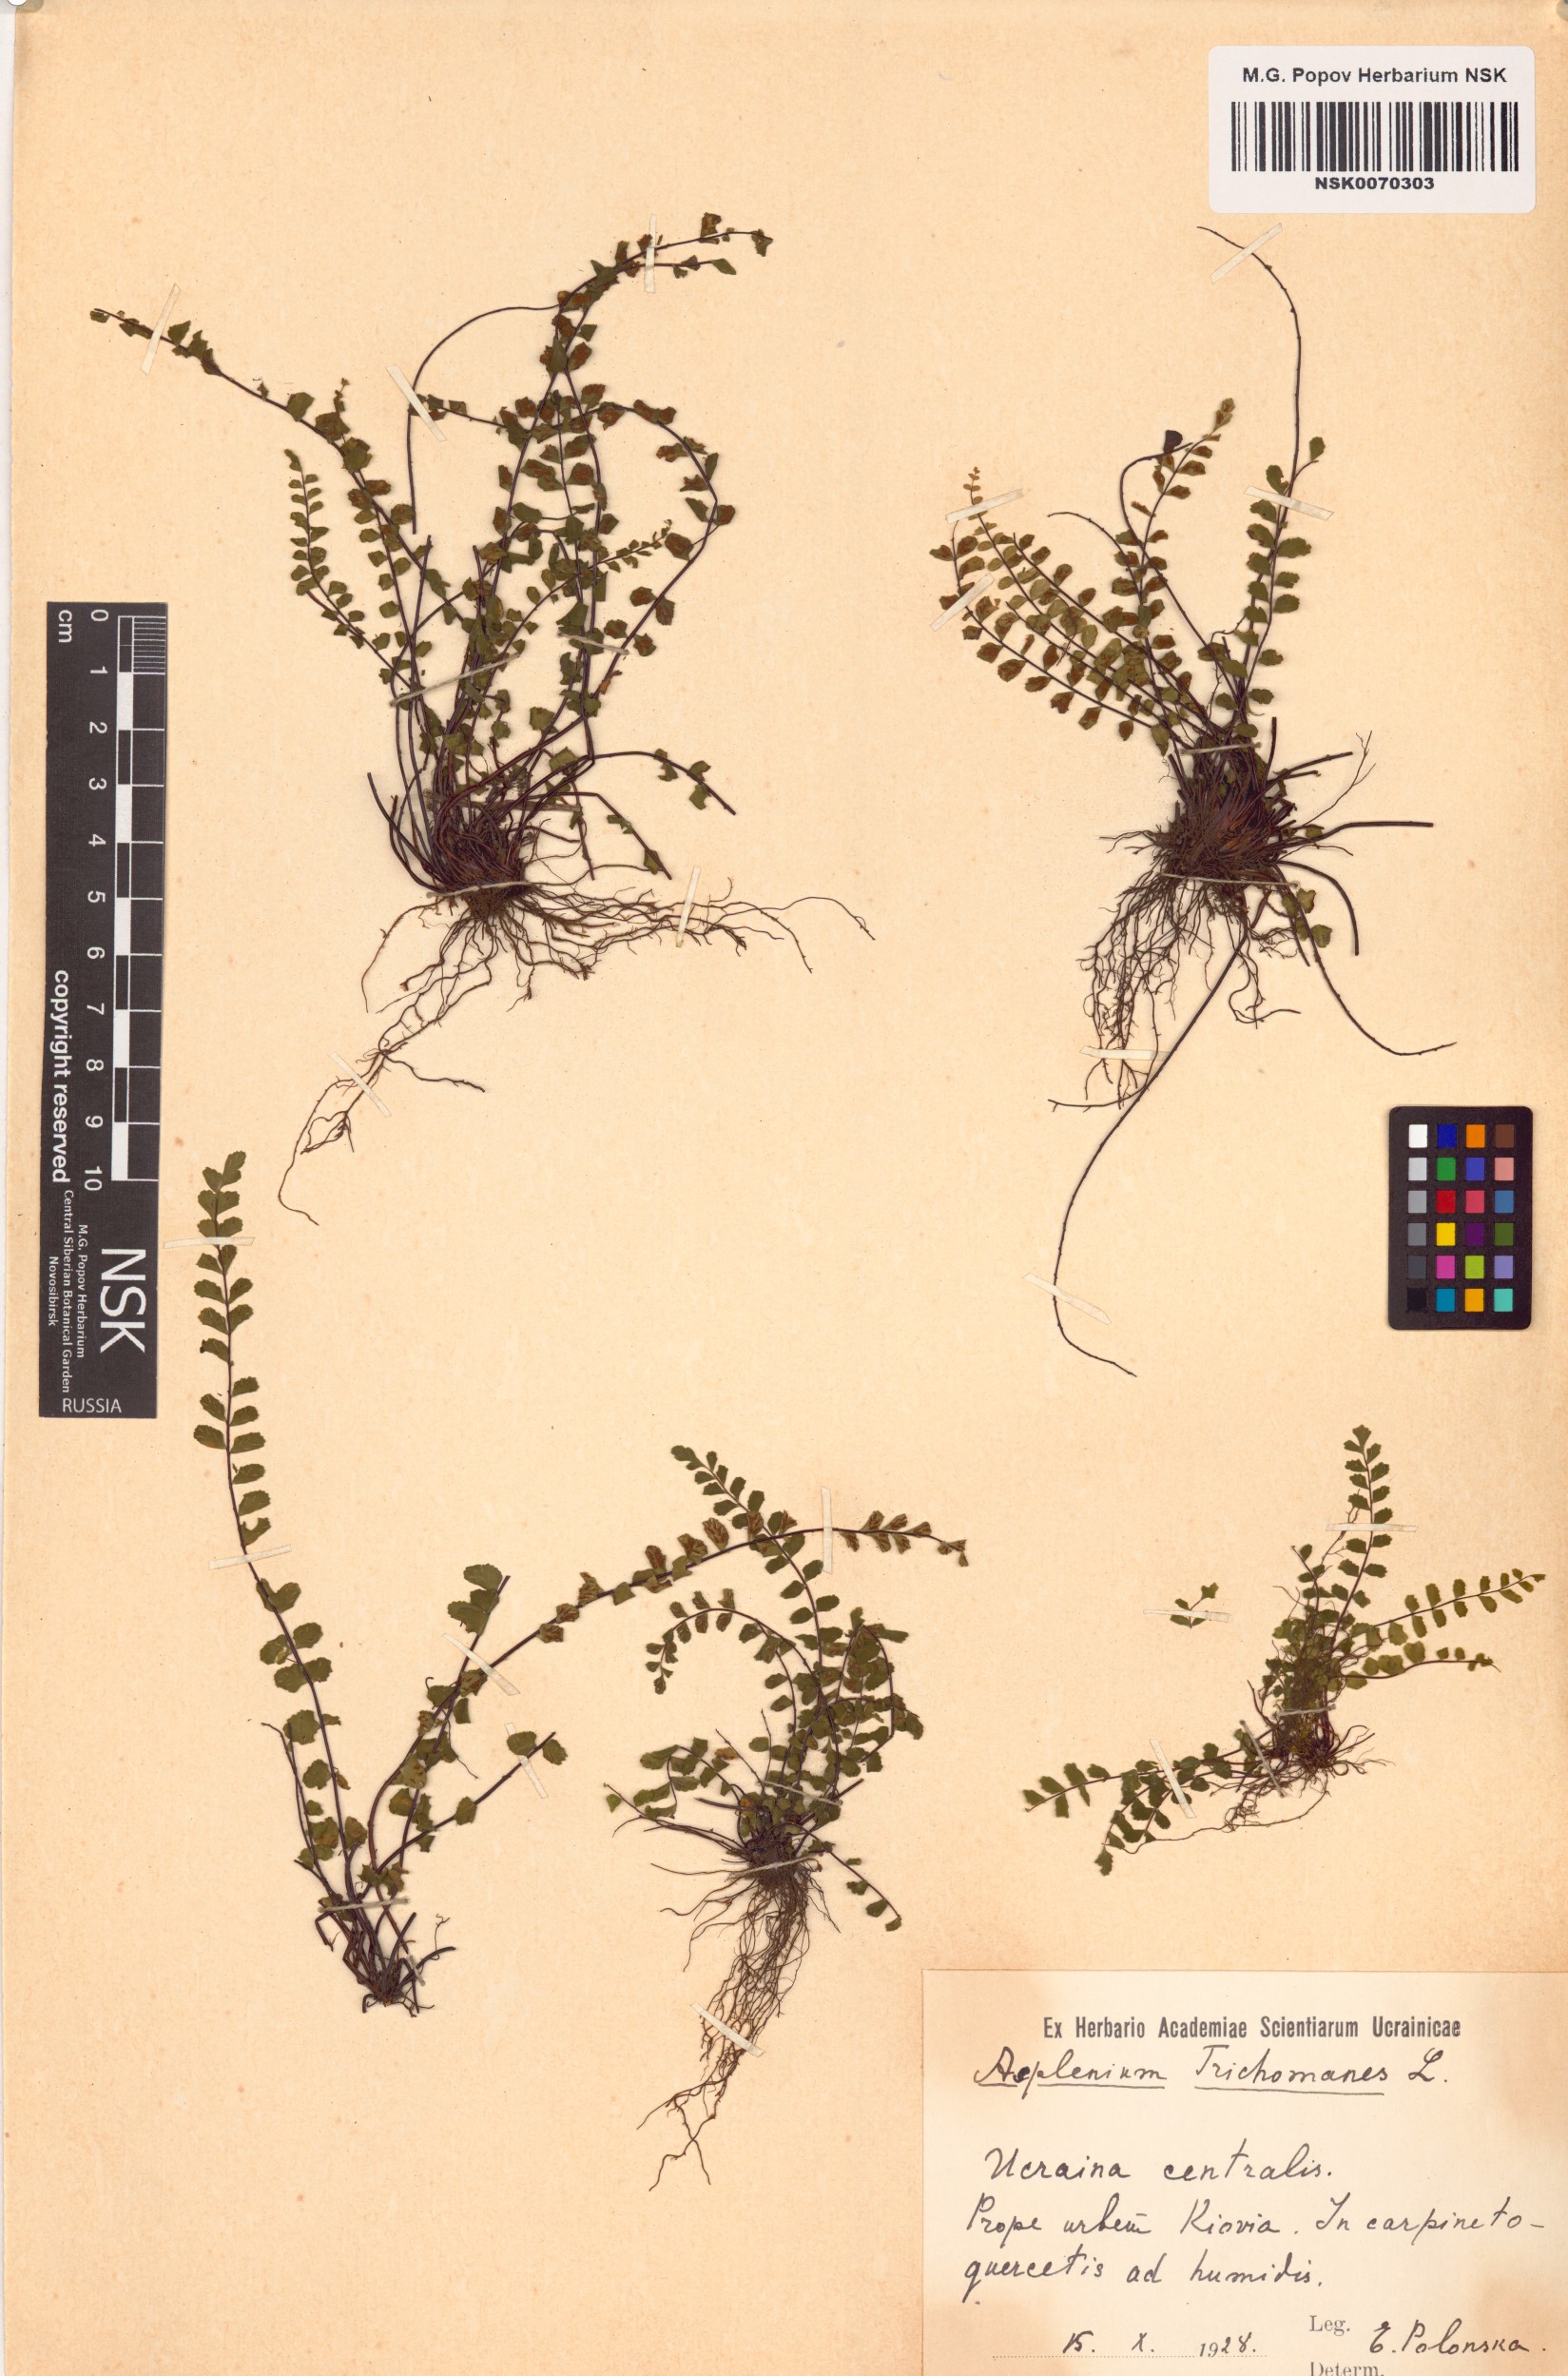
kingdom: Plantae
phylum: Tracheophyta
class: Polypodiopsida
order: Polypodiales
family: Aspleniaceae
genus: Asplenium
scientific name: Asplenium trichomanes
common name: Maidenhair spleenwort
